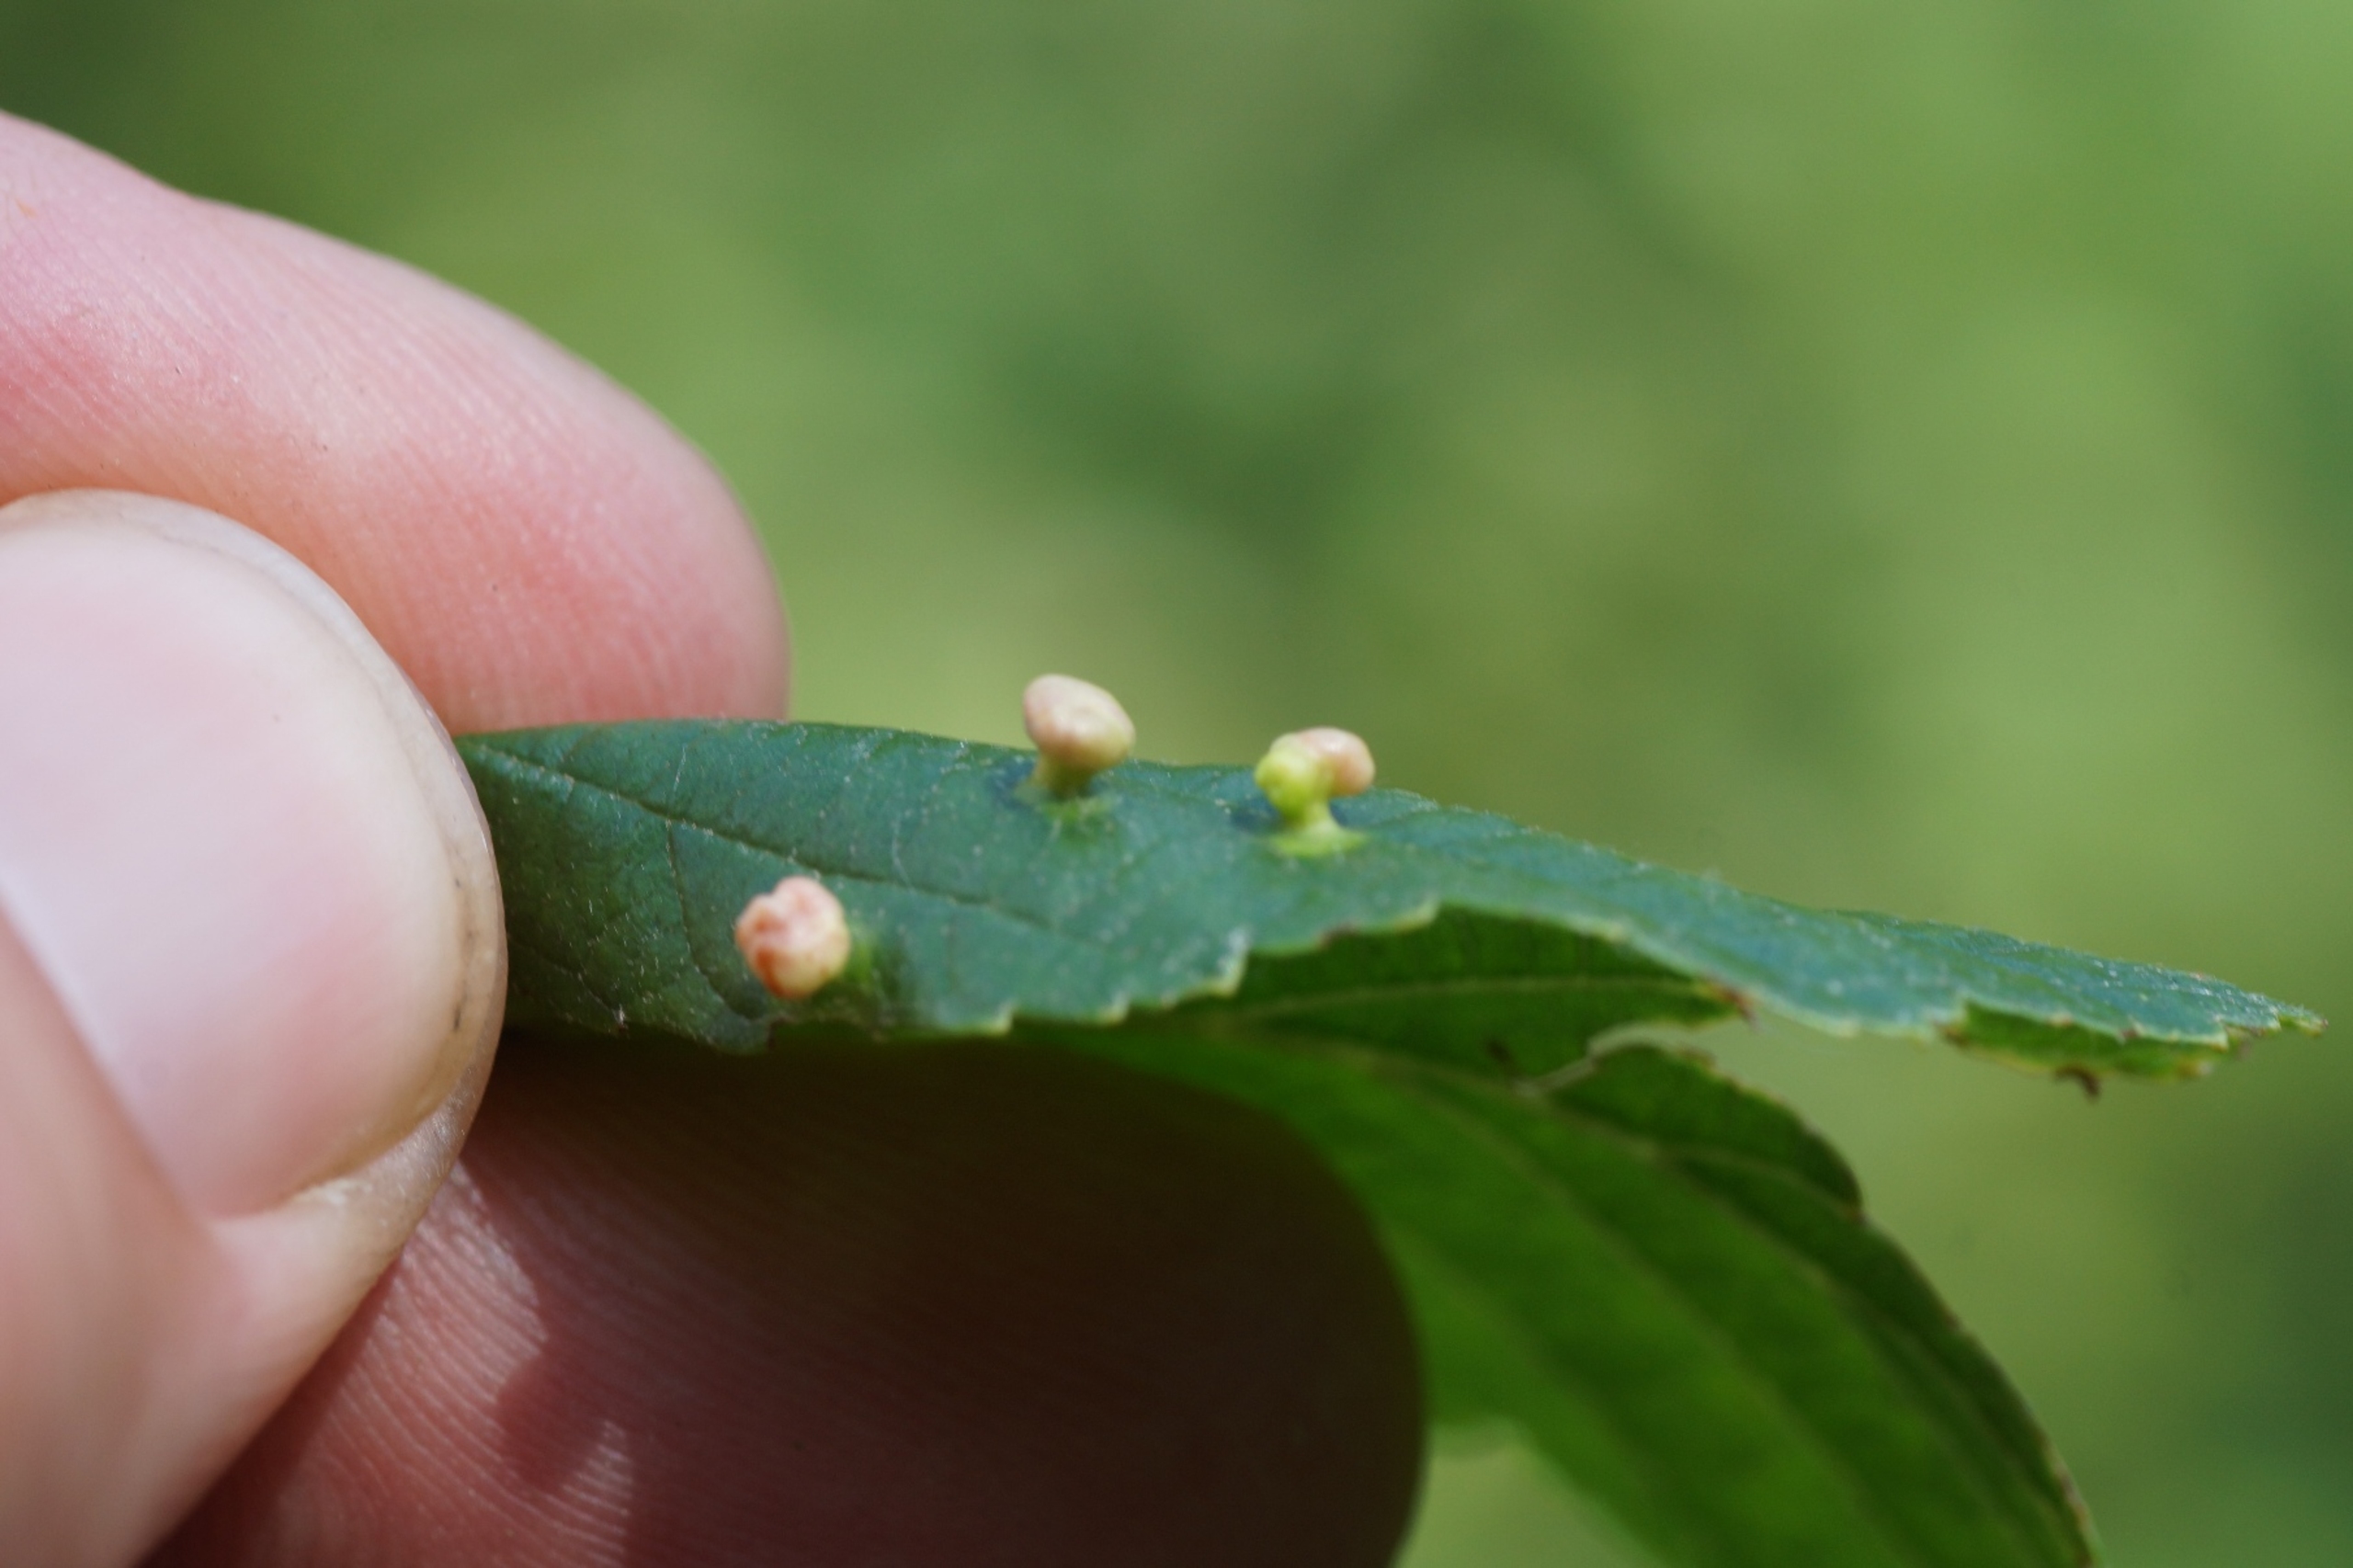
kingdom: Animalia
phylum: Arthropoda
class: Arachnida
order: Trombidiformes
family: Eriophyidae
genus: Eriophyes
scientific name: Eriophyes laevis
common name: Ellepunggalmide
